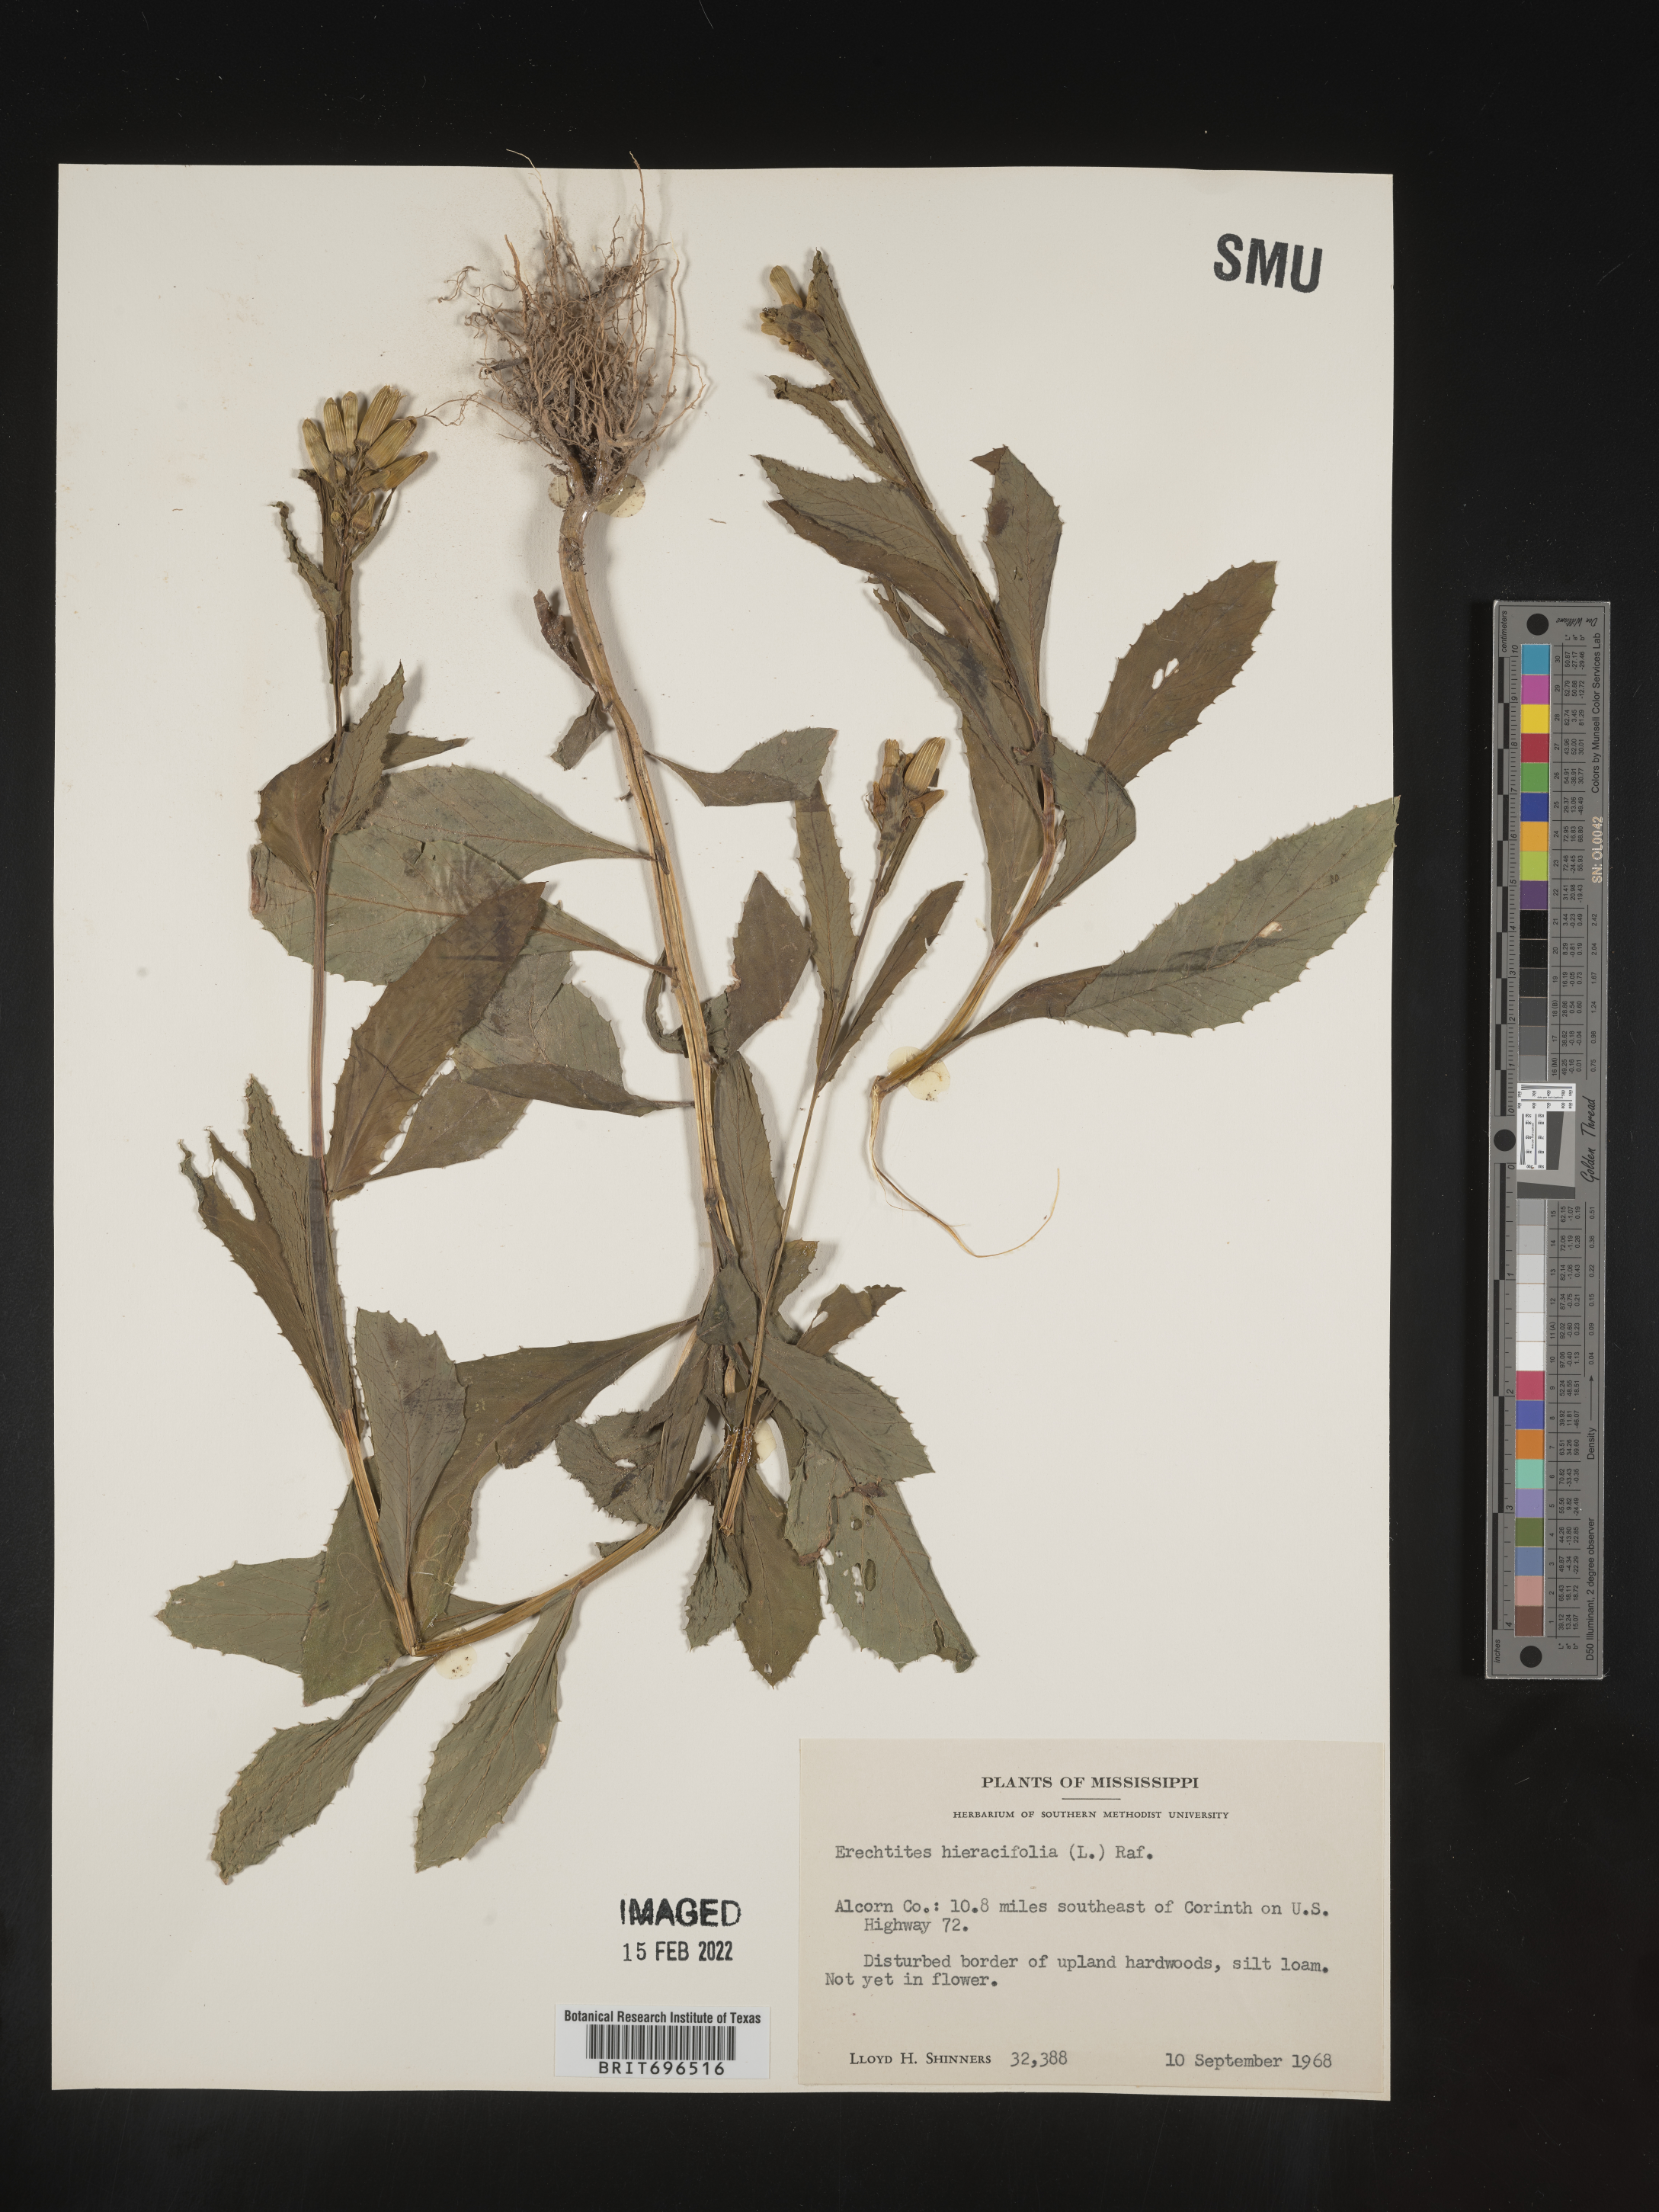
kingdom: Plantae
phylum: Tracheophyta
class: Magnoliopsida
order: Asterales
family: Asteraceae
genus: Erechtites
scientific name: Erechtites hieraciifolius
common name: American burnweed
